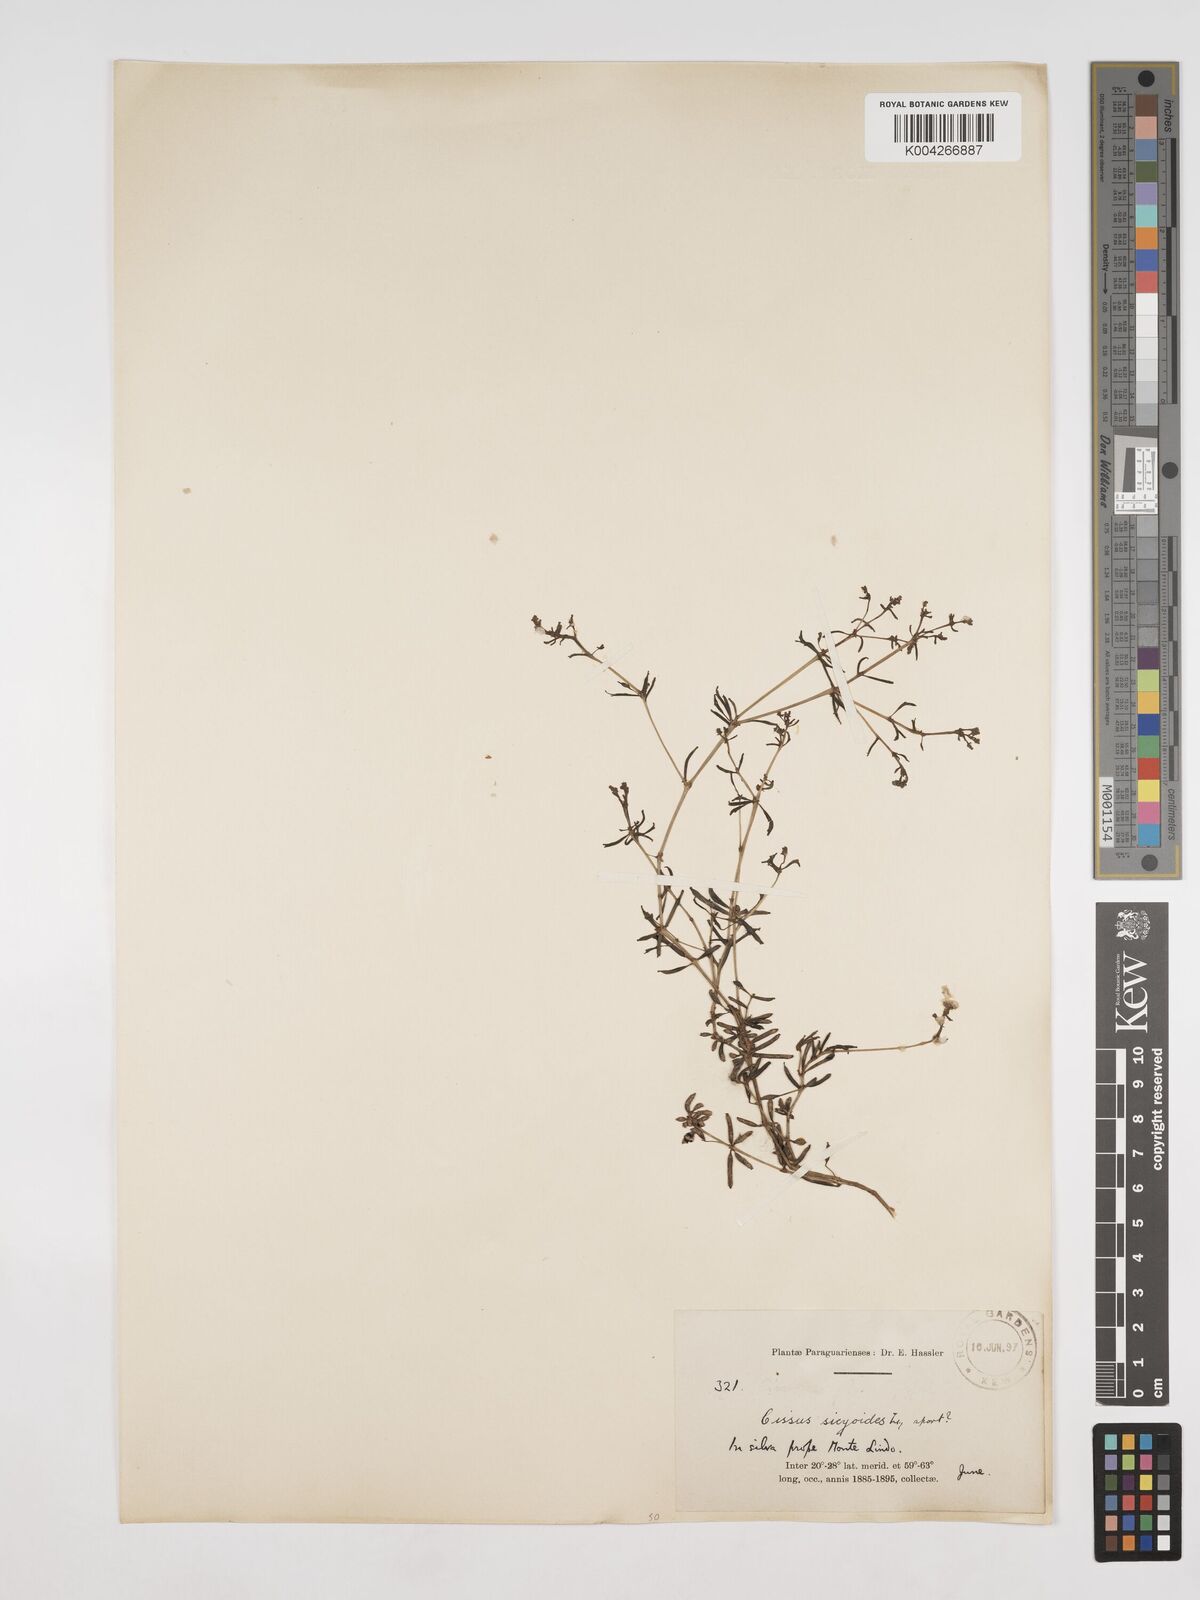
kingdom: Plantae
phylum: Tracheophyta
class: Magnoliopsida
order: Vitales
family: Vitaceae
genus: Cissus
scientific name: Cissus verticillata
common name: Princess vine
